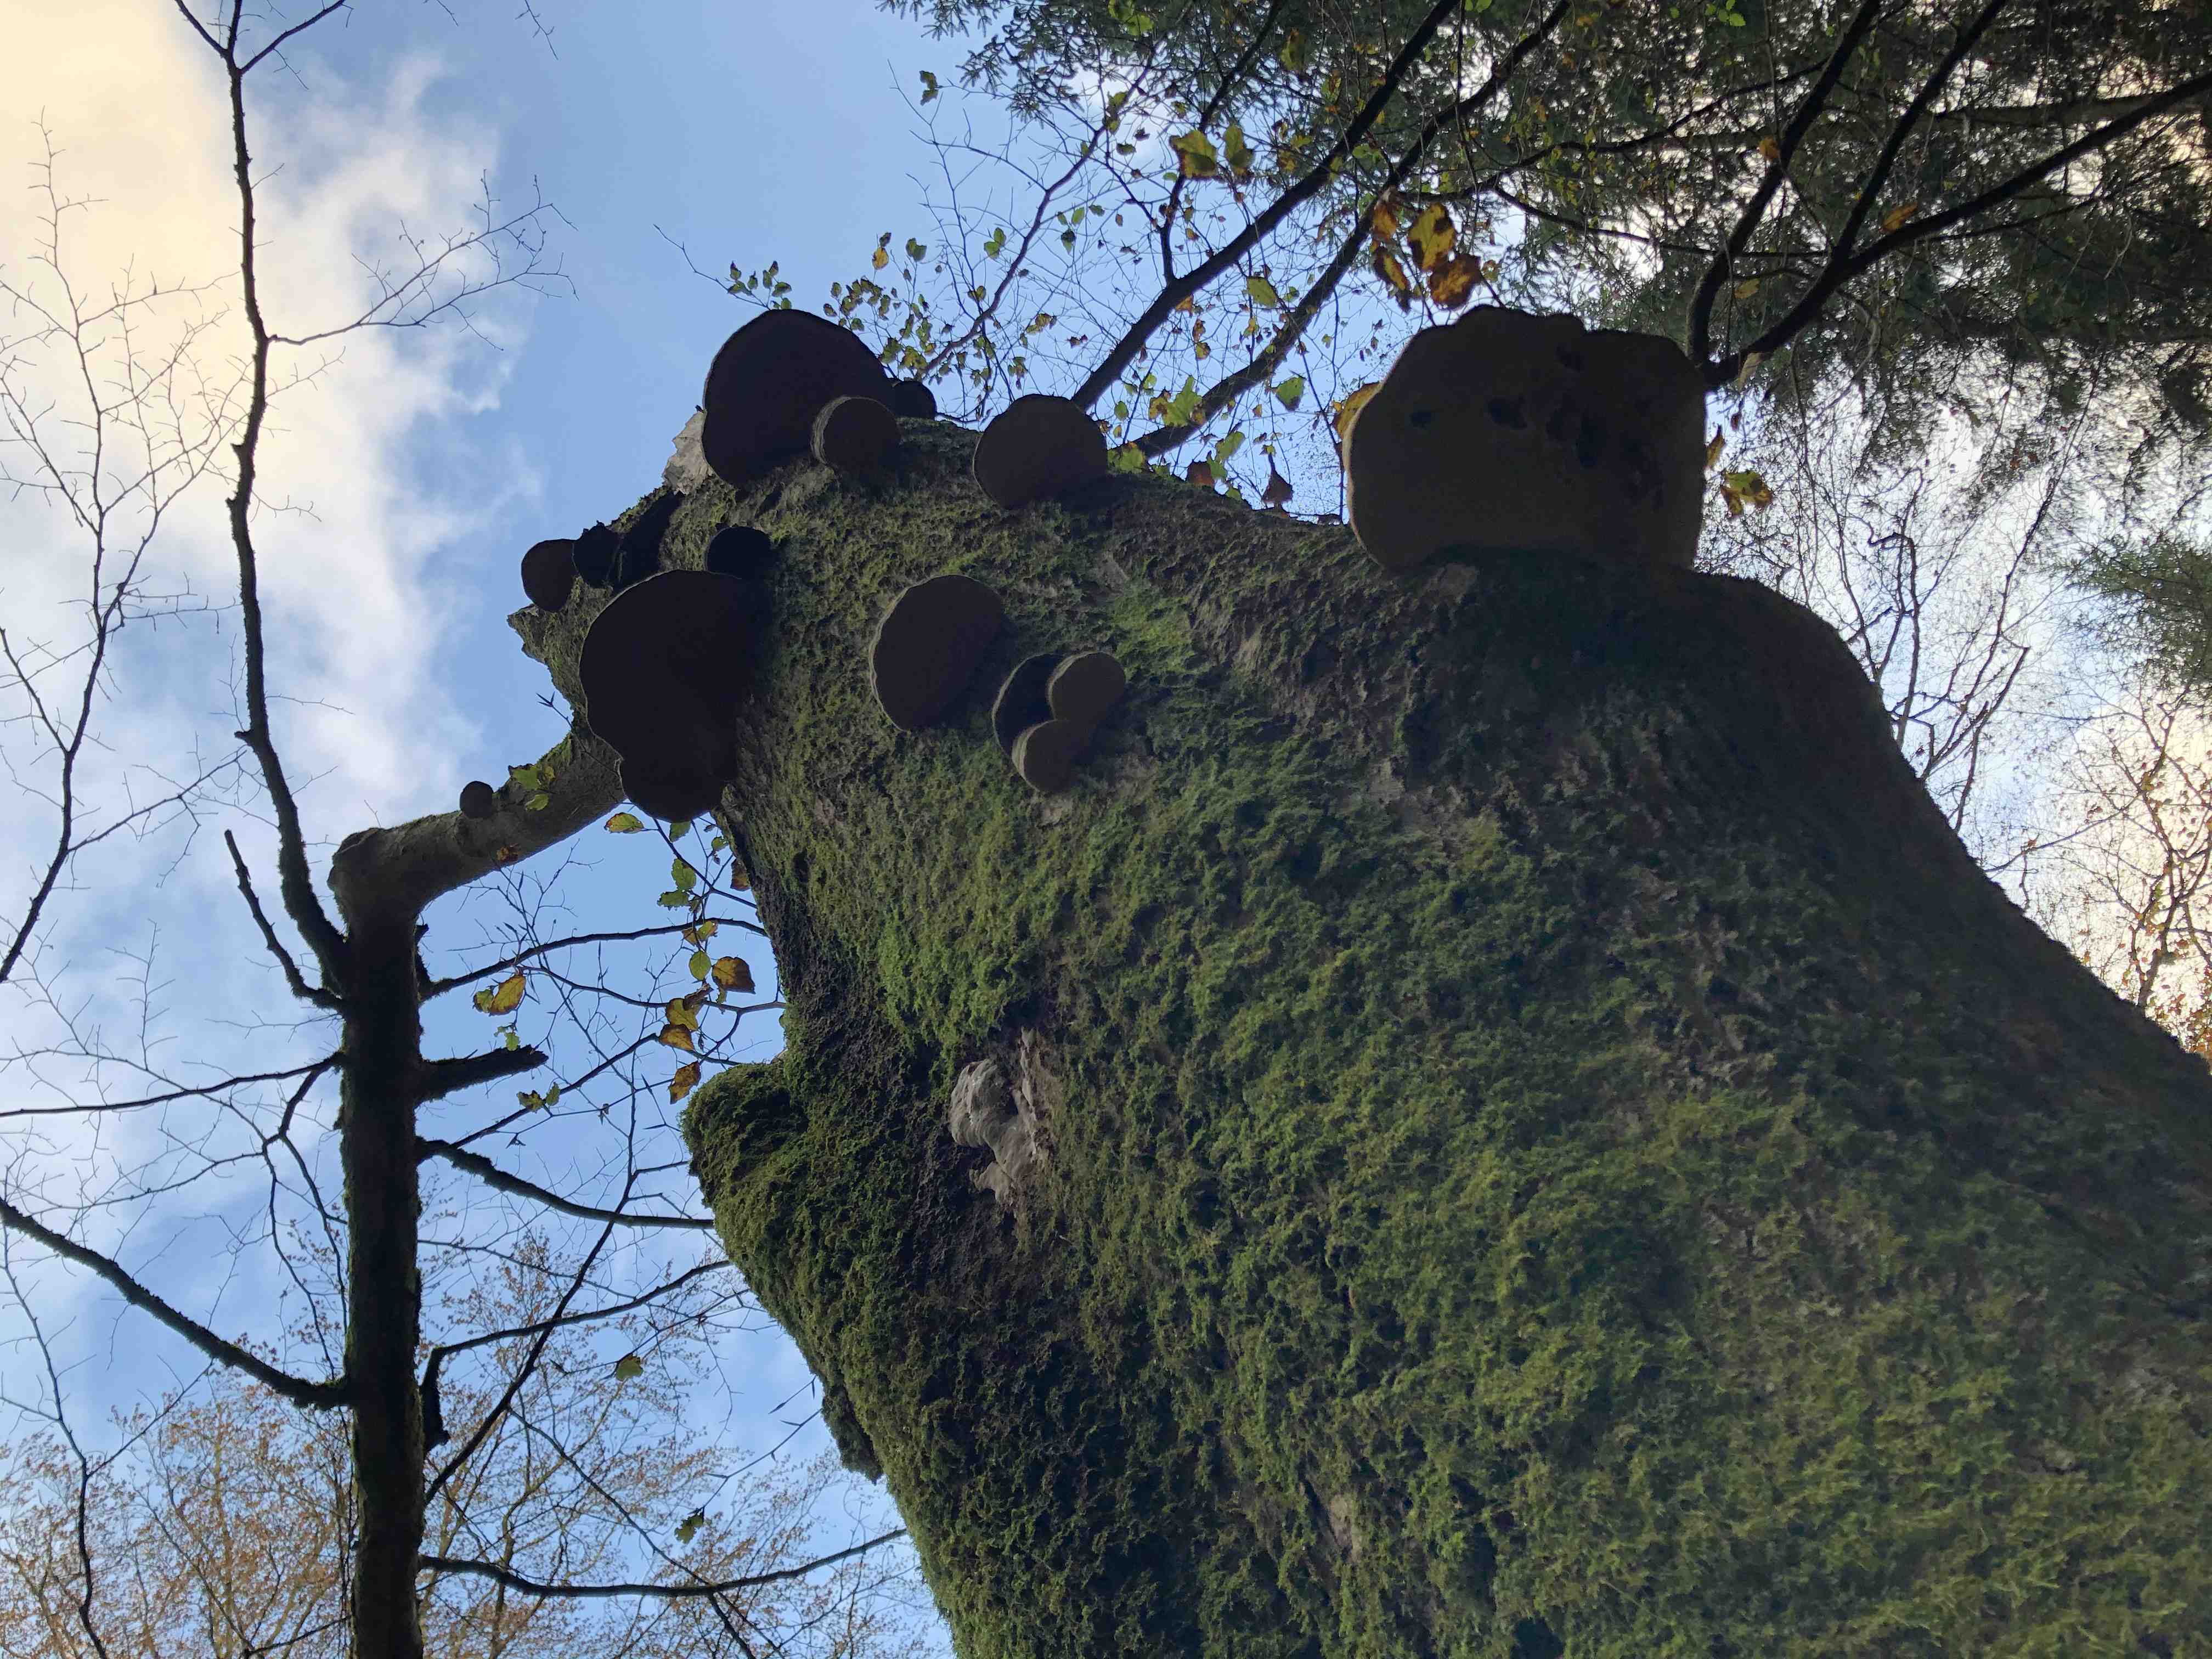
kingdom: Fungi
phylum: Basidiomycota
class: Agaricomycetes
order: Polyporales
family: Polyporaceae
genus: Fomes
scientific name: Fomes fomentarius
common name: tøndersvamp
